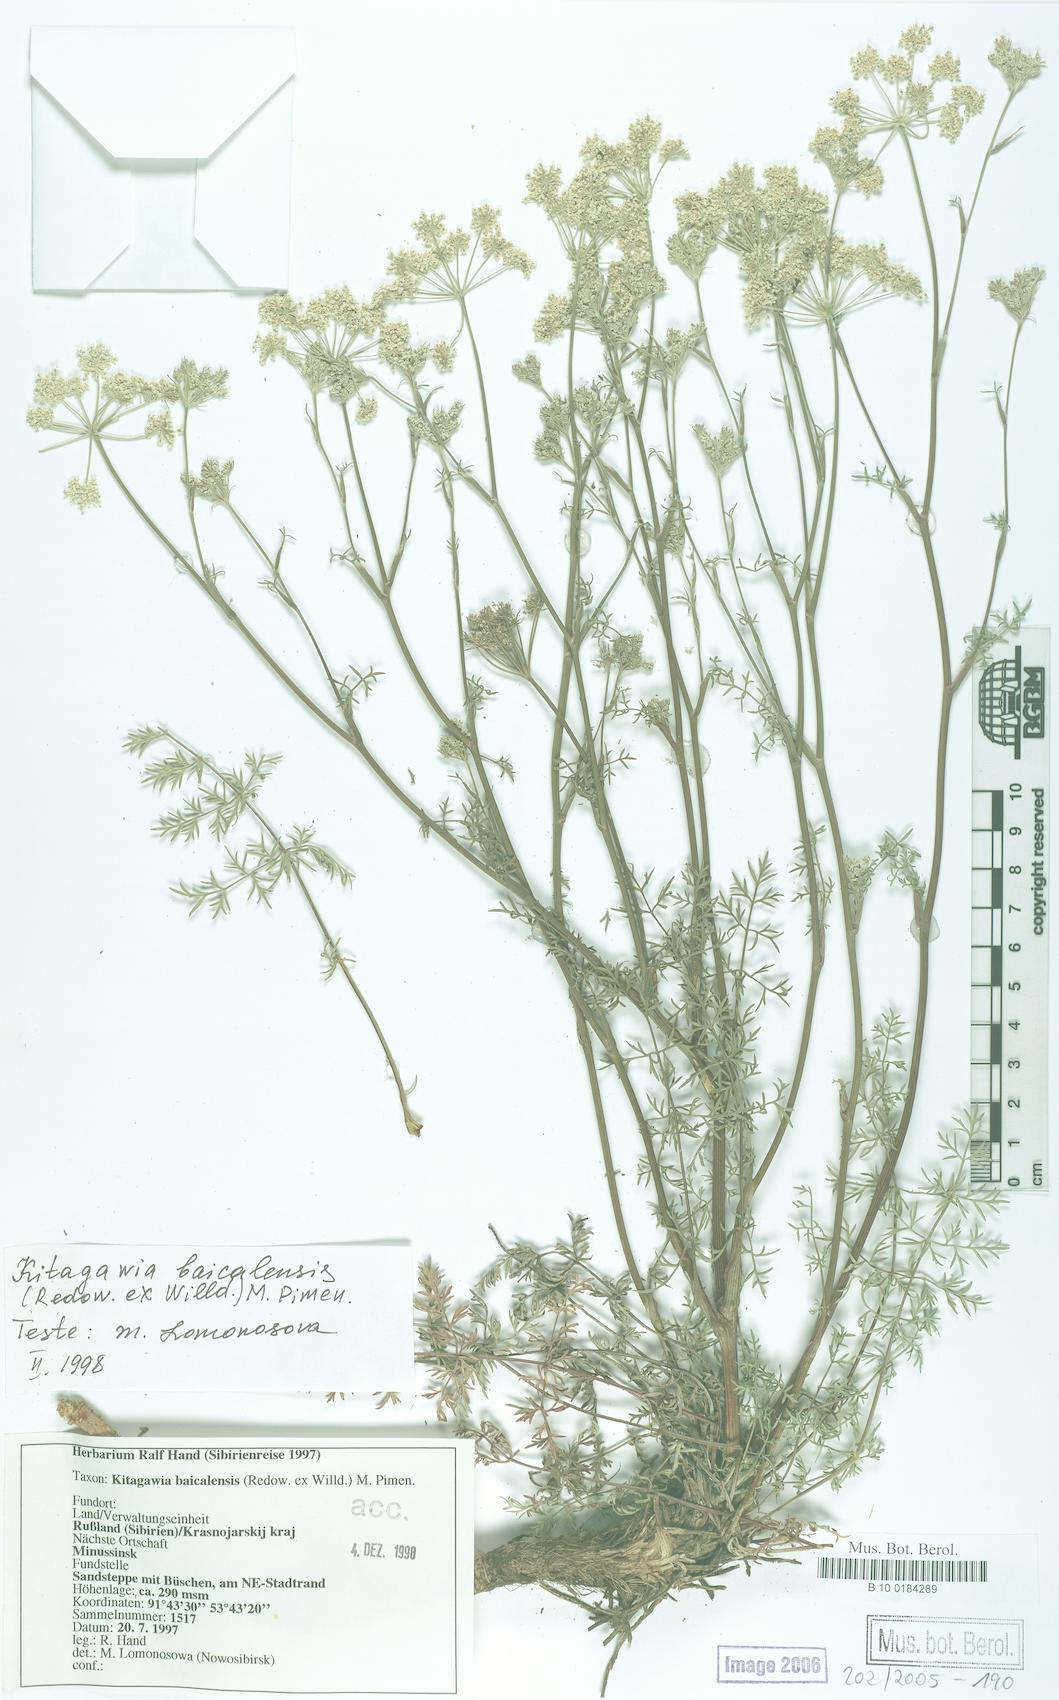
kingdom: Plantae
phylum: Tracheophyta
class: Magnoliopsida
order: Apiales
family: Apiaceae
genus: Kitagawia
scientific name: Kitagawia baicalensis
